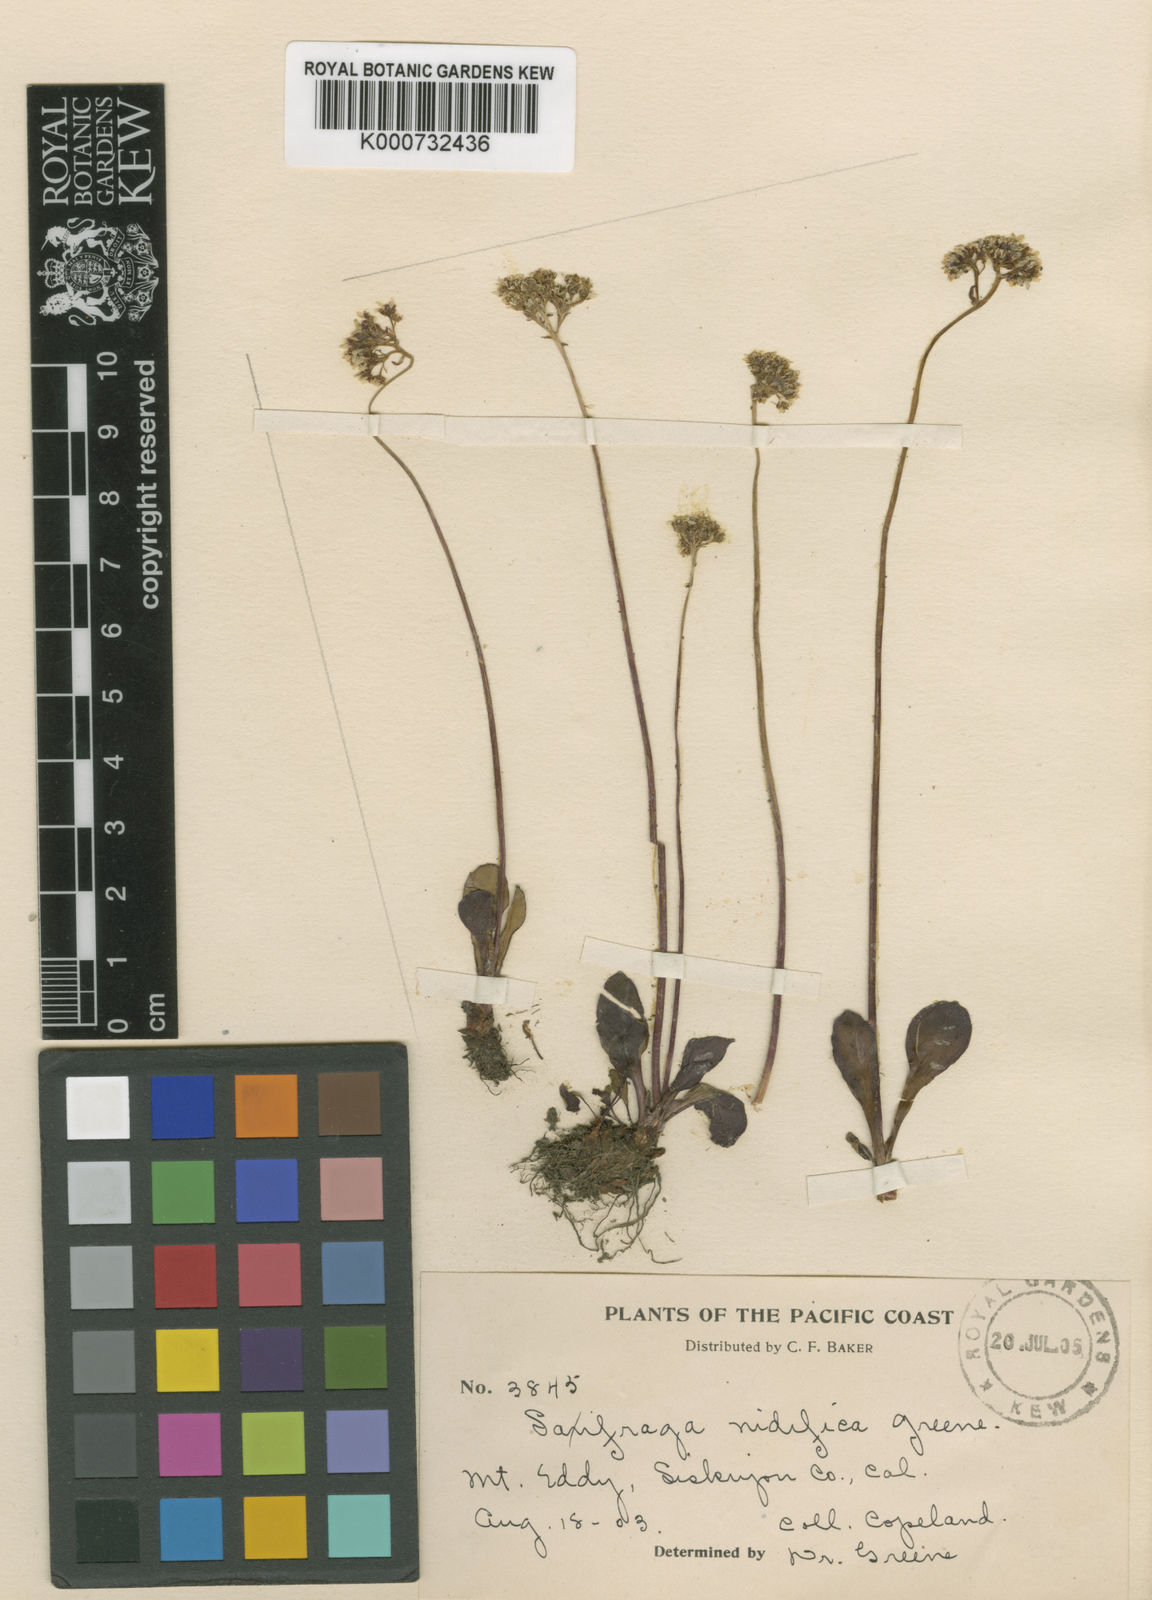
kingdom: Plantae
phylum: Tracheophyta
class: Magnoliopsida
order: Saxifragales
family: Saxifragaceae
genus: Micranthes
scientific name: Micranthes occidentalis
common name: Alberta saxifrage
